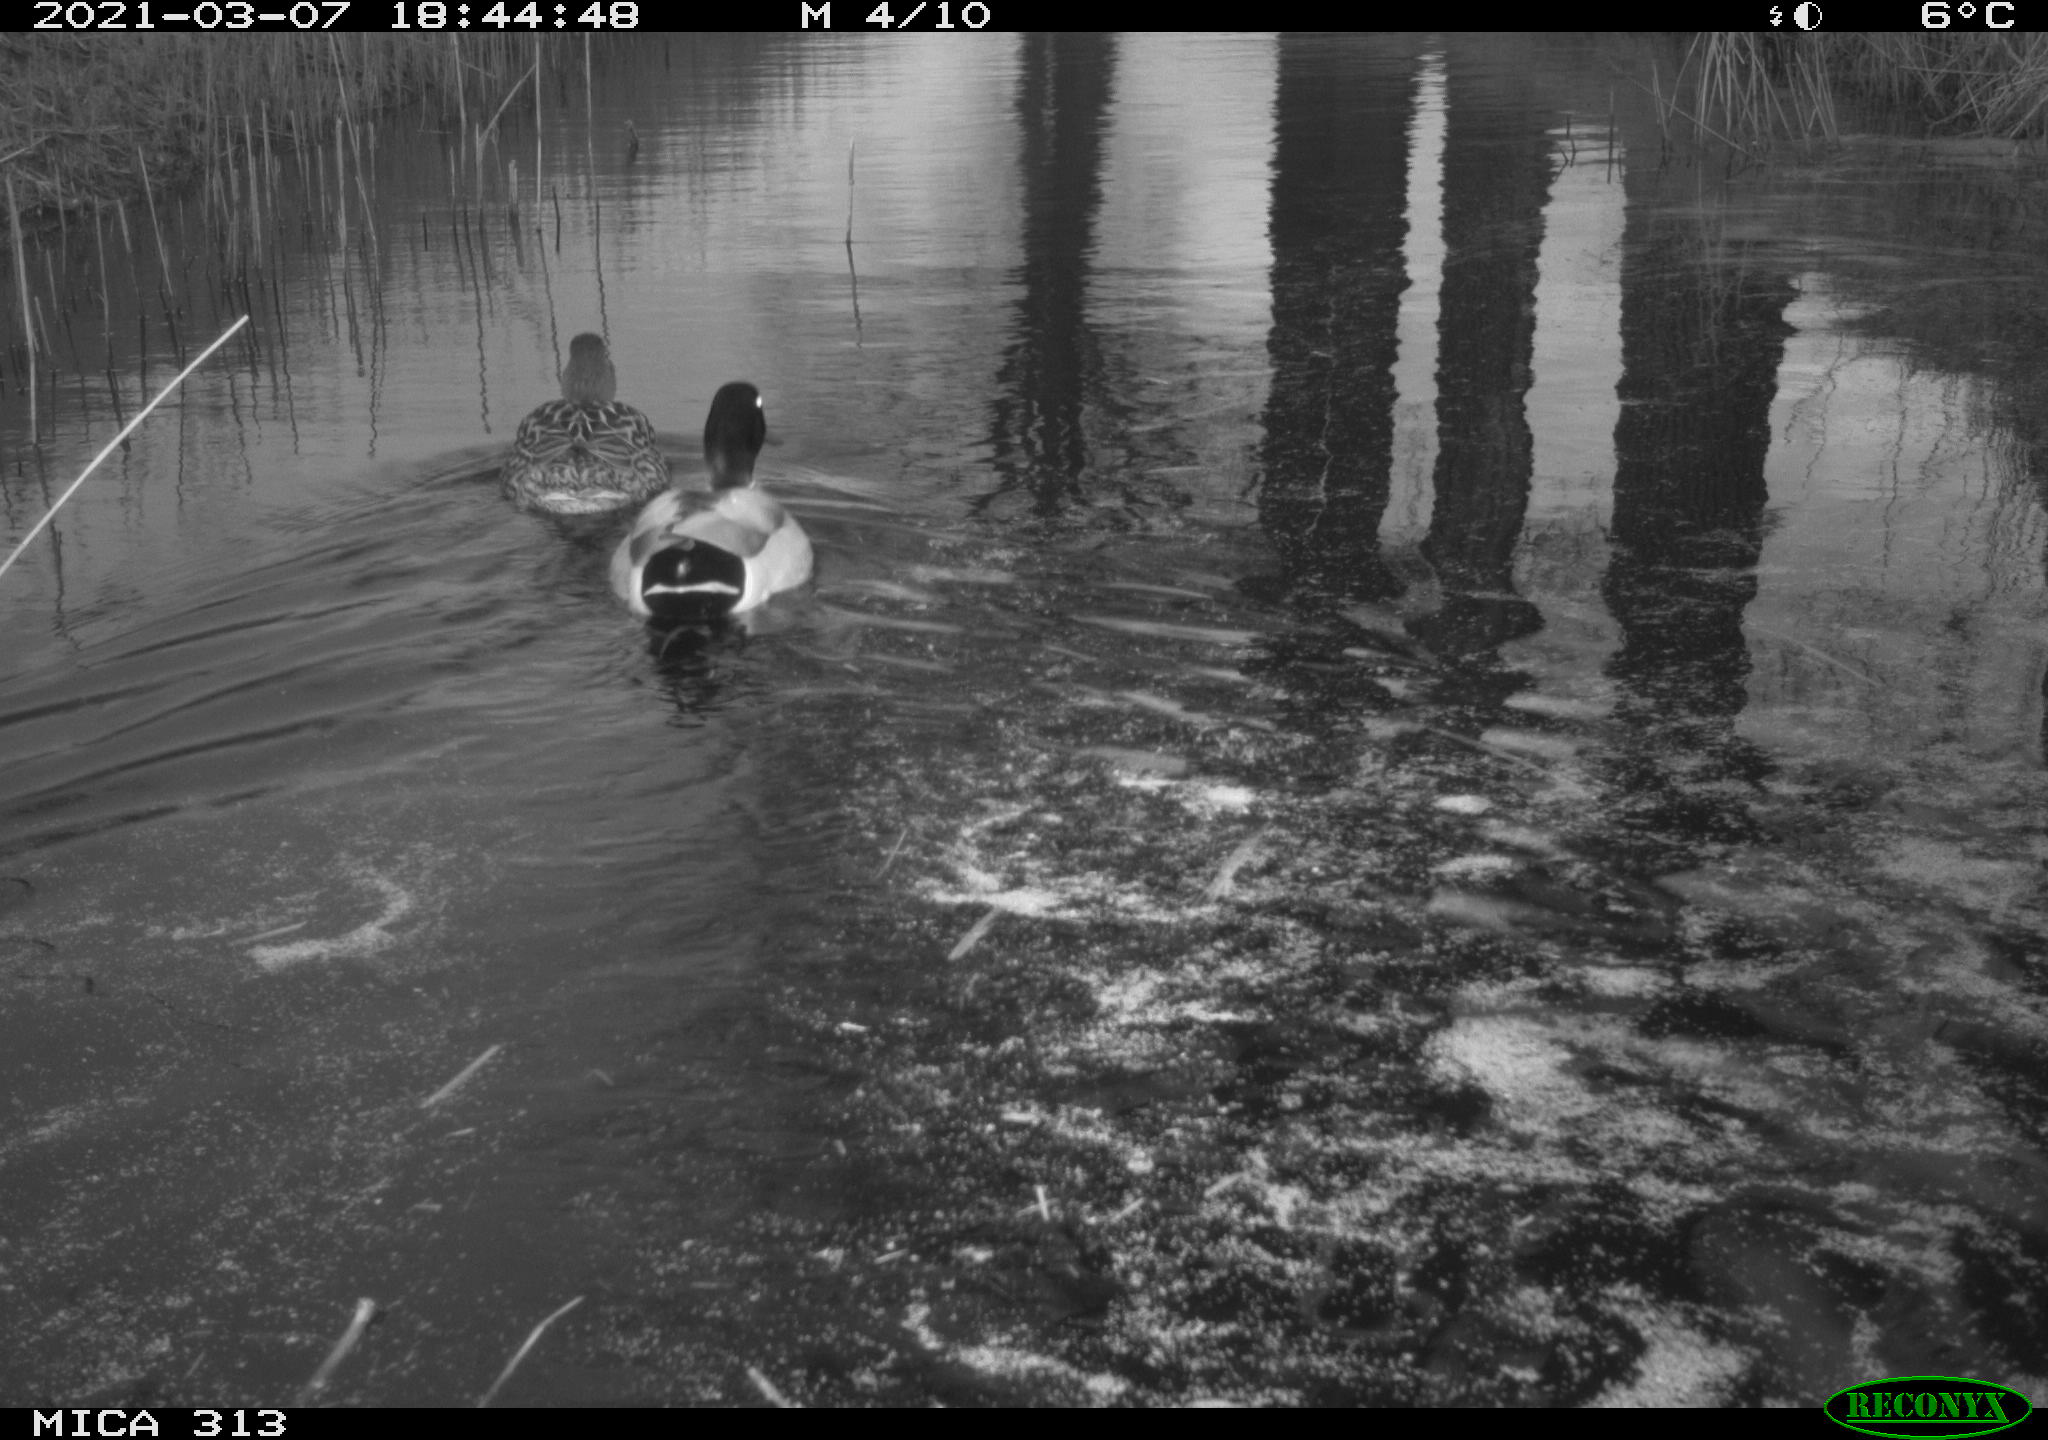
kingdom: Animalia
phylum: Chordata
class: Aves
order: Anseriformes
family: Anatidae
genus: Anas
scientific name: Anas platyrhynchos
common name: Mallard
